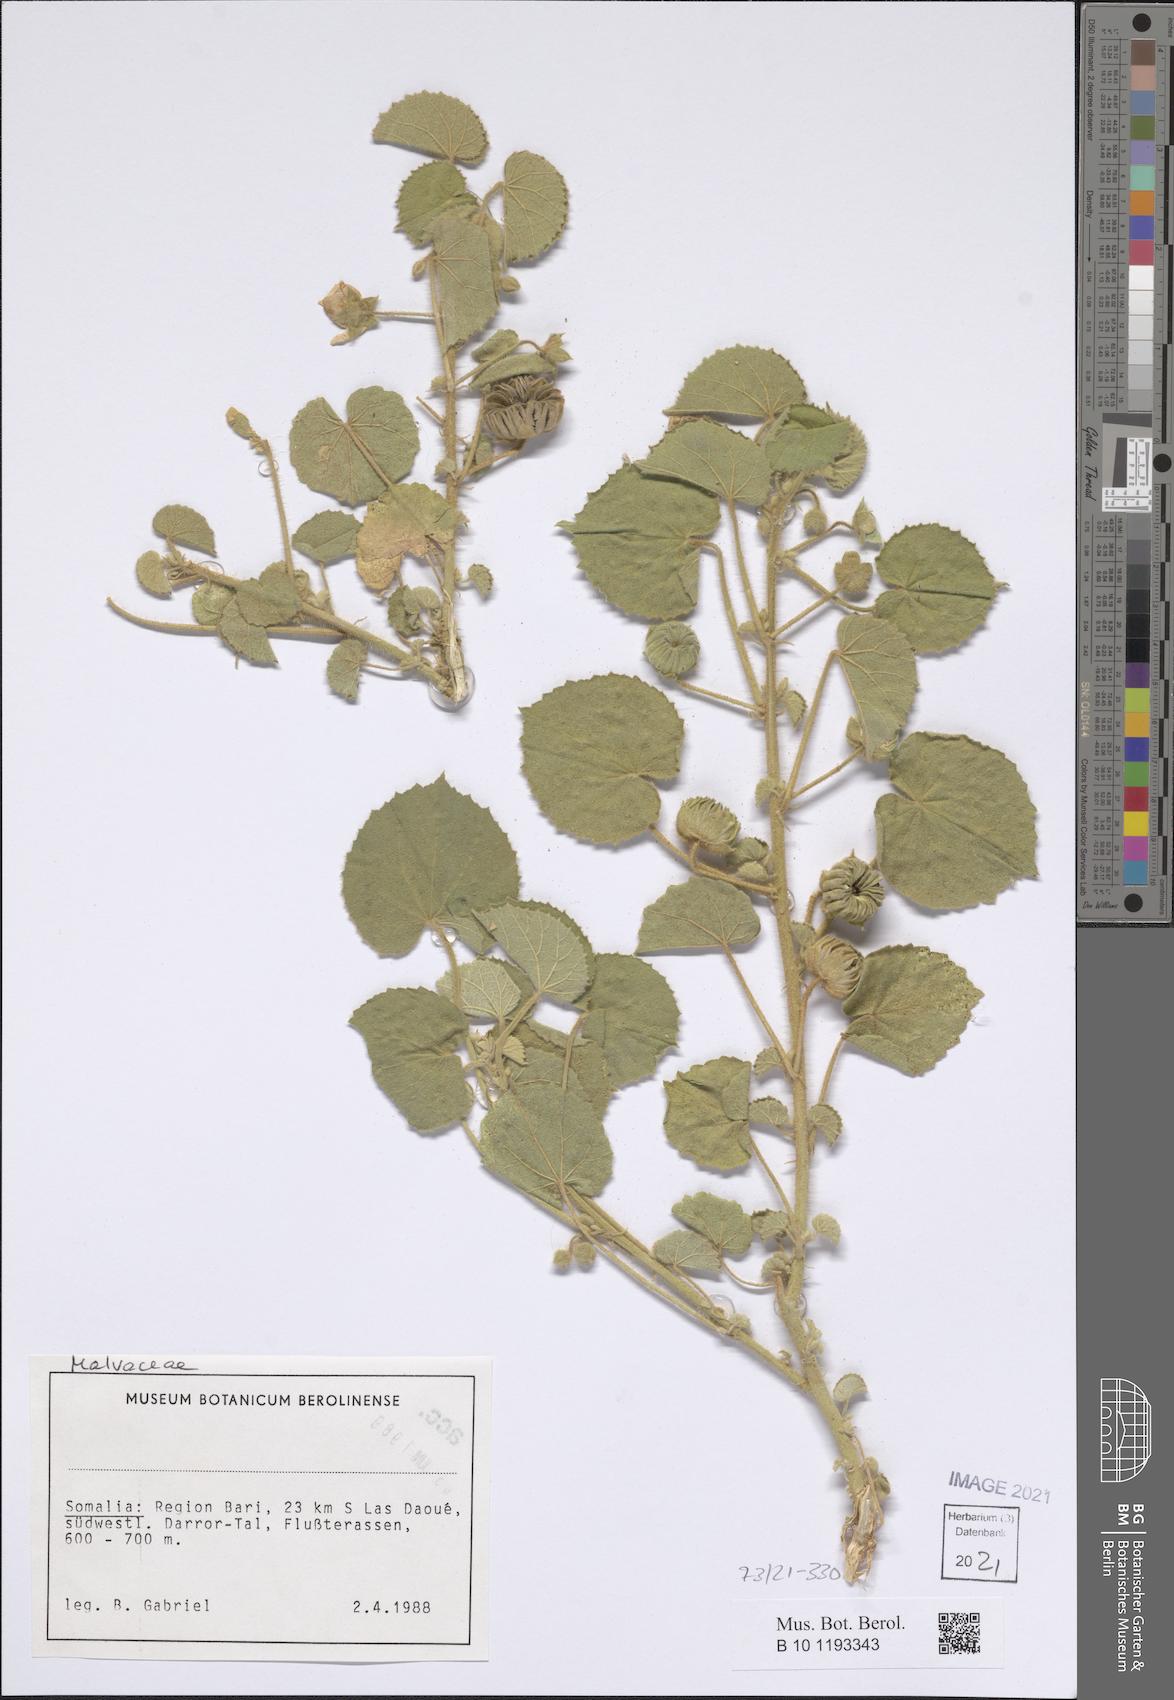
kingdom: Plantae
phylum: Tracheophyta
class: Magnoliopsida
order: Malvales
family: Malvaceae
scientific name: Malvaceae
